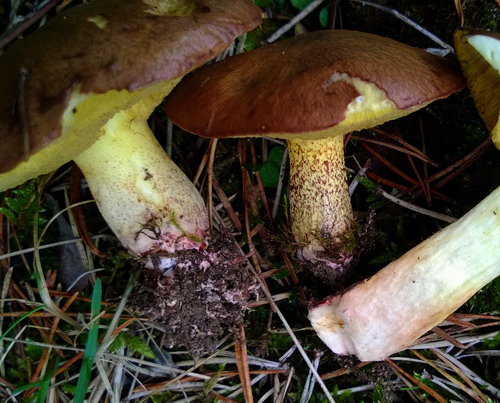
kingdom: Fungi
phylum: Basidiomycota
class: Agaricomycetes
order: Boletales
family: Suillaceae
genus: Suillus
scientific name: Suillus collinitus
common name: rosafodet slimrørhat
